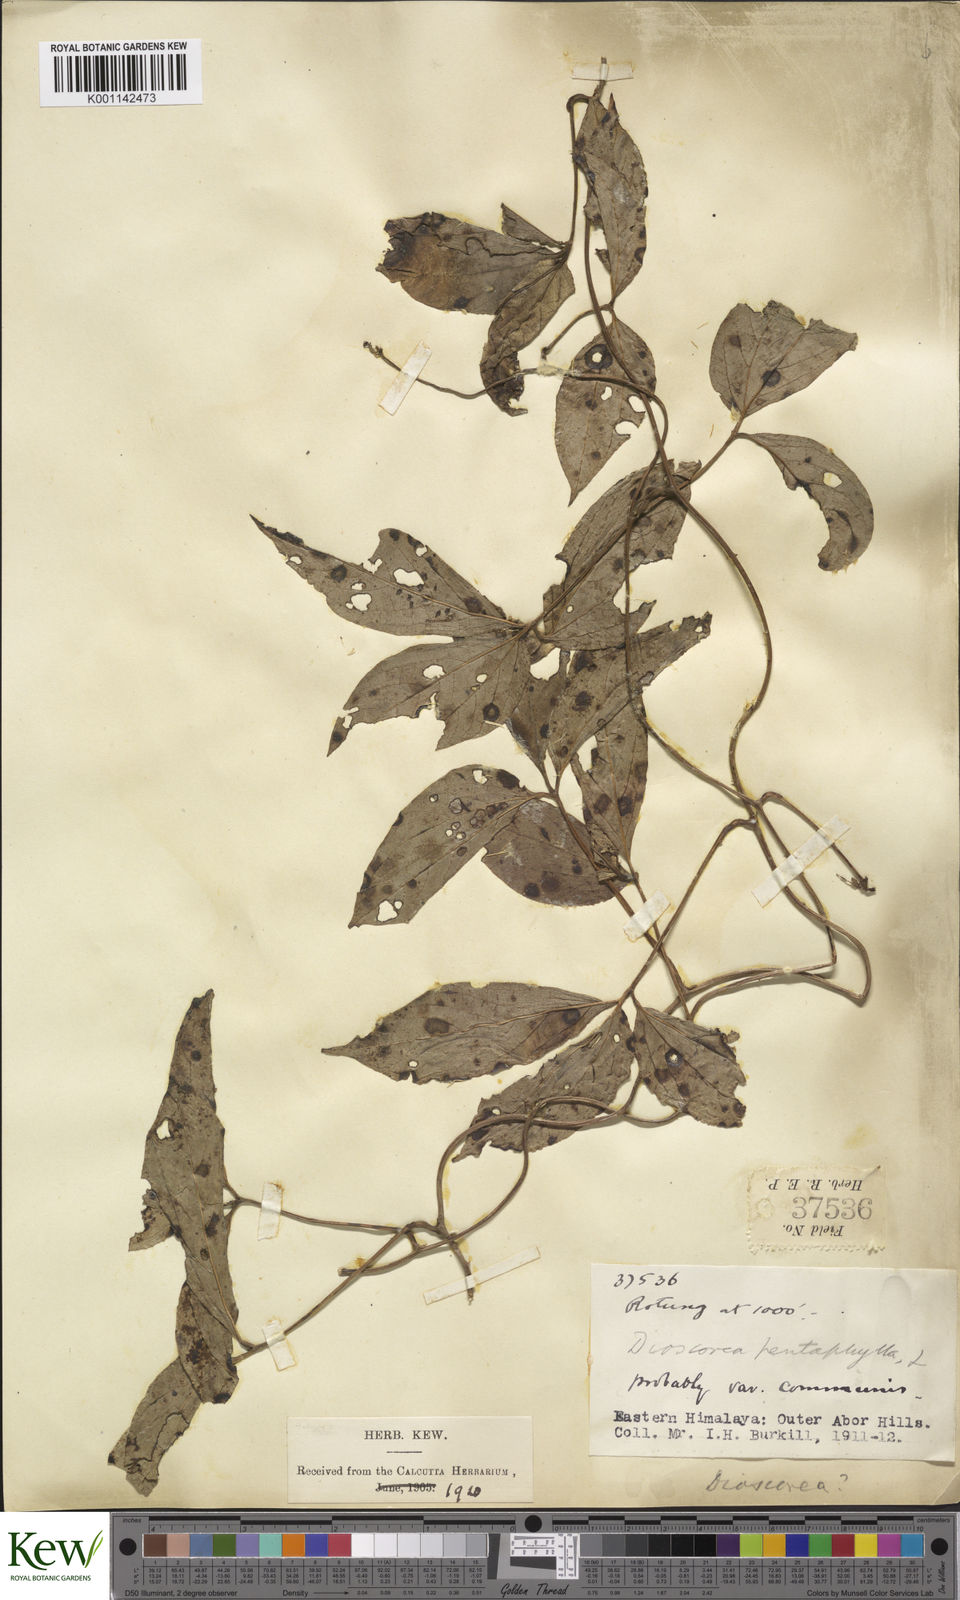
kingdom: Plantae
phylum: Tracheophyta
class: Liliopsida
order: Dioscoreales
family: Dioscoreaceae
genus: Dioscorea
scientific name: Dioscorea pentaphylla
